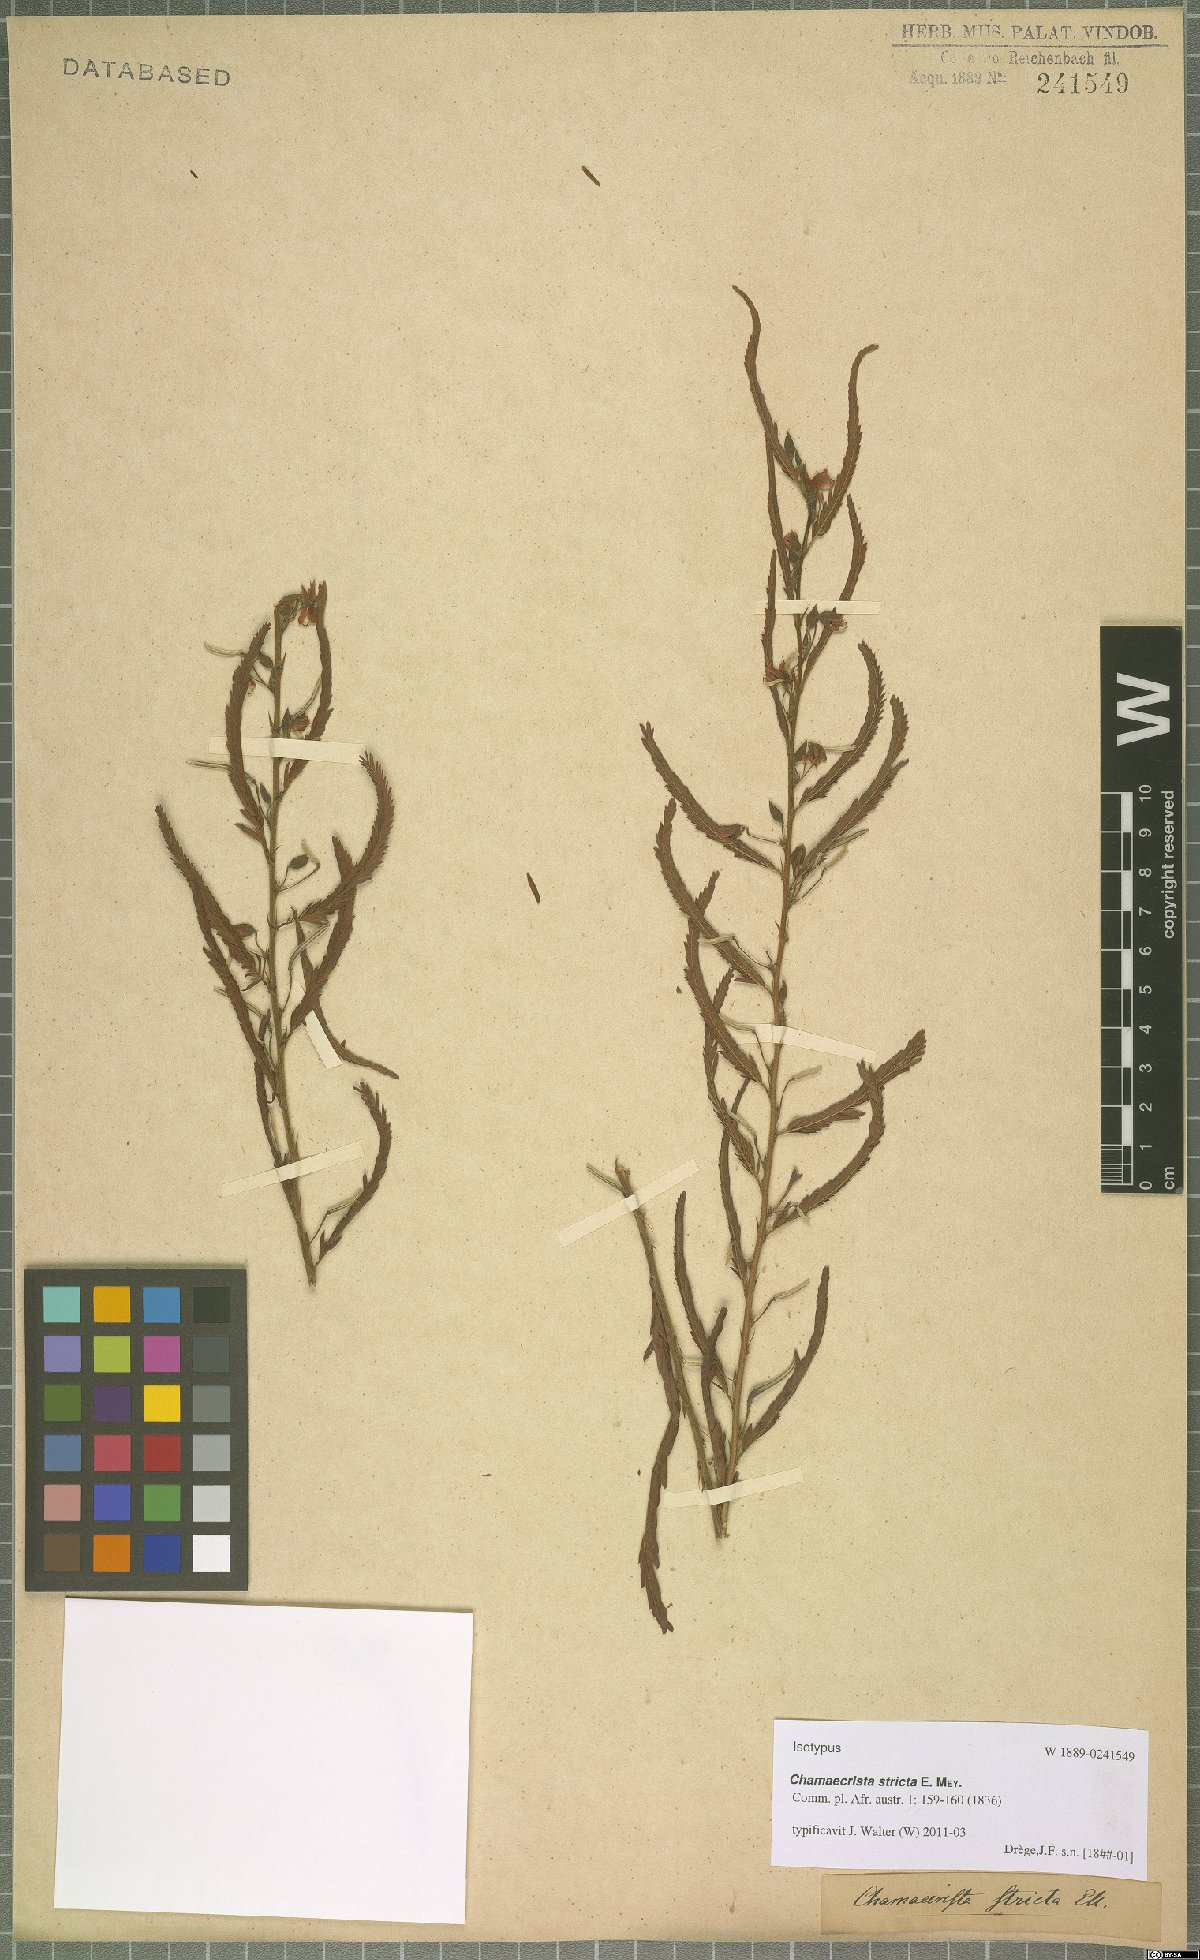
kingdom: Plantae
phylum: Tracheophyta
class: Magnoliopsida
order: Fabales
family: Fabaceae
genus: Chamaecrista
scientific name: Chamaecrista stricta
